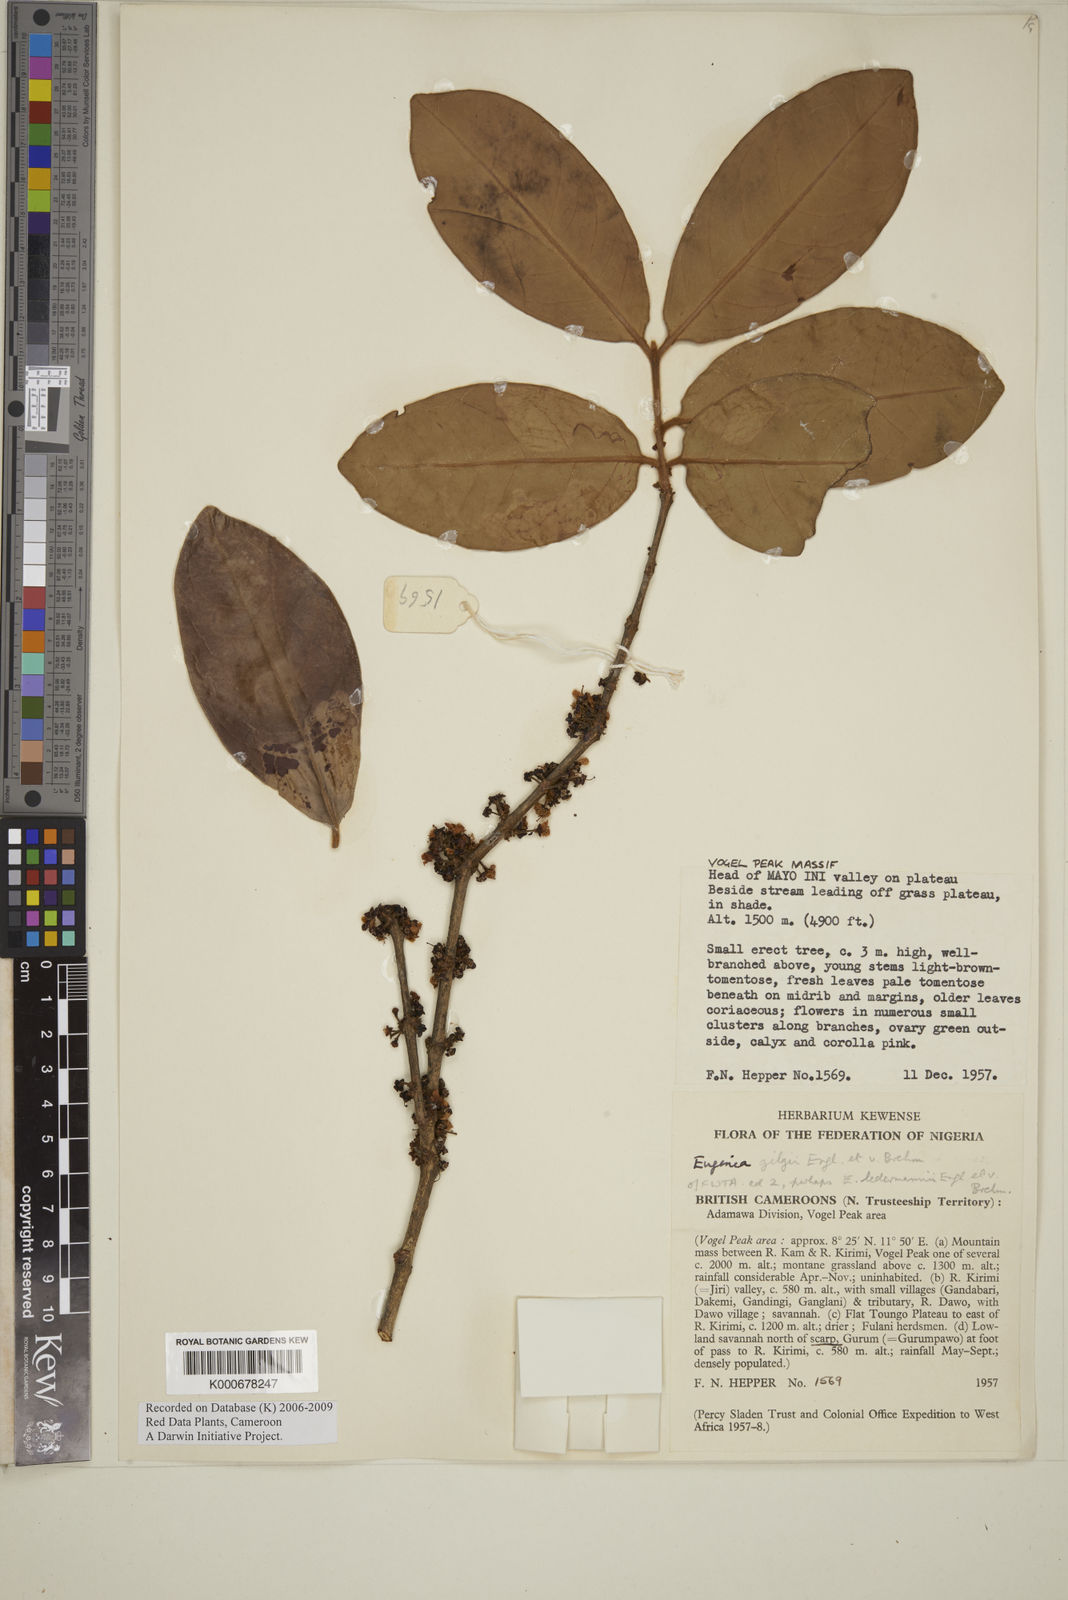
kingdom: Plantae
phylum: Tracheophyta
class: Magnoliopsida
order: Myrtales
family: Myrtaceae
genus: Eugenia
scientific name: Eugenia gilgii
